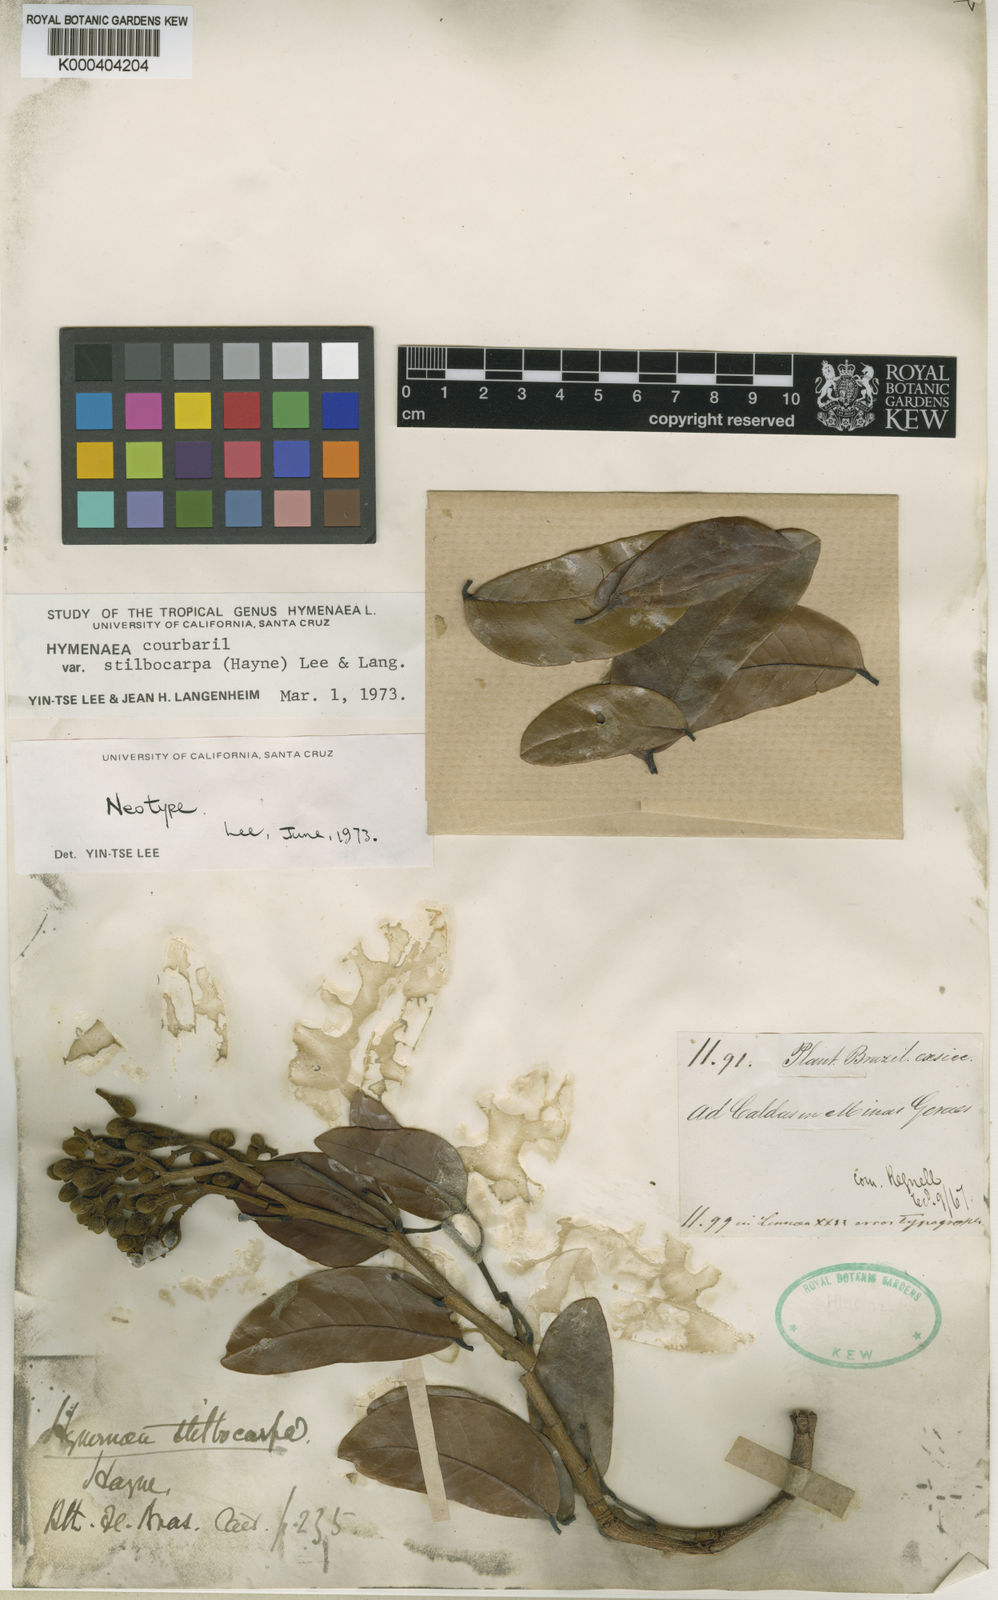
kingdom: Plantae
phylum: Tracheophyta
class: Magnoliopsida
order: Fabales
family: Fabaceae
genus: Hymenaea
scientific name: Hymenaea courbaril
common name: Brazilian copal
